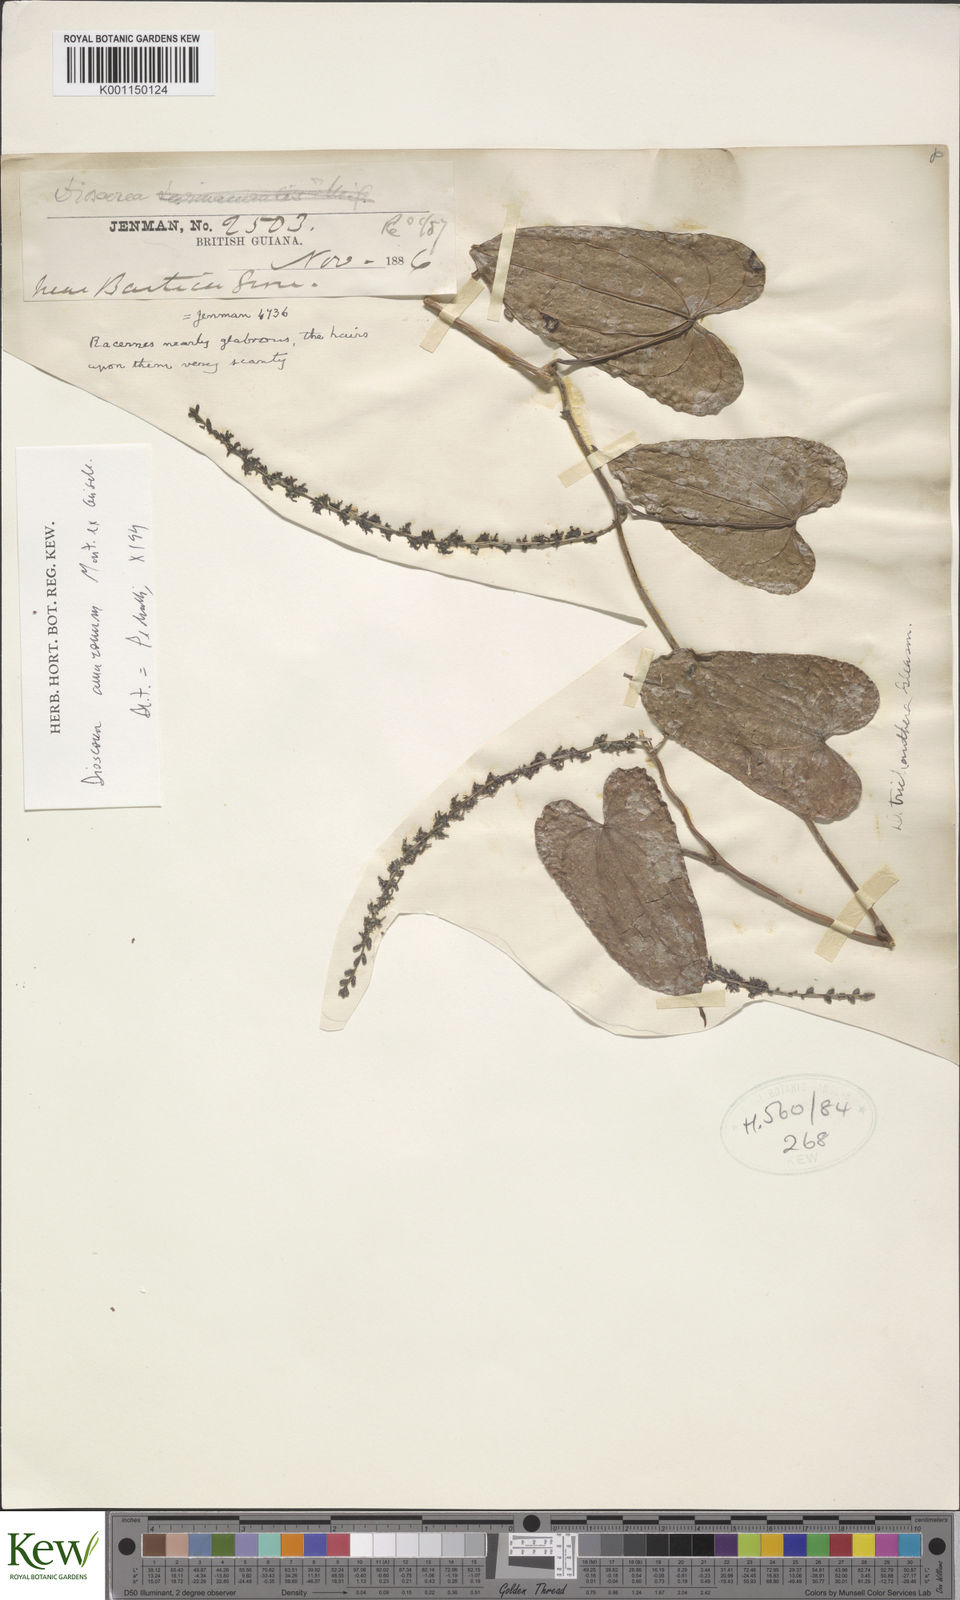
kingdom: Plantae
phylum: Tracheophyta
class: Liliopsida
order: Dioscoreales
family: Dioscoreaceae
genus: Dioscorea
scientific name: Dioscorea trichanthera
